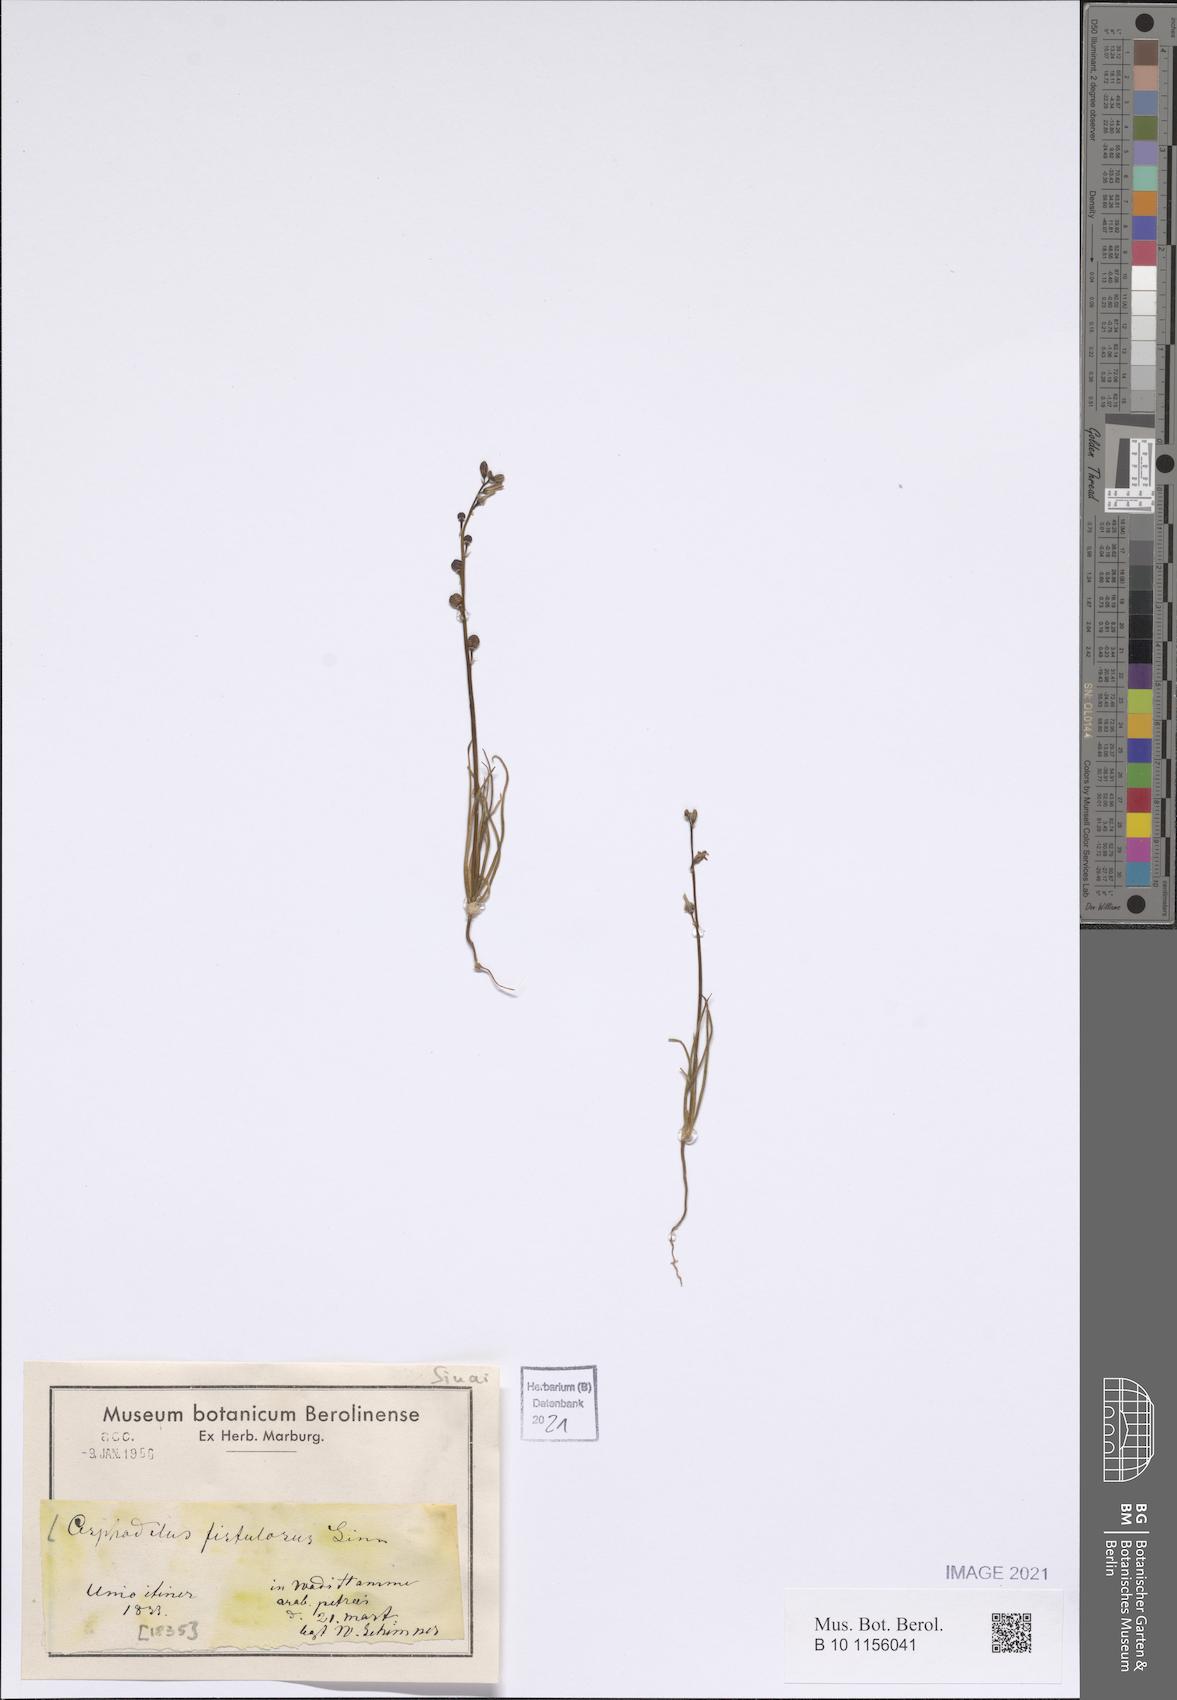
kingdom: Plantae
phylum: Tracheophyta
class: Liliopsida
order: Asparagales
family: Asphodelaceae
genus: Asphodelus
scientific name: Asphodelus fistulosus
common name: Onionweed
